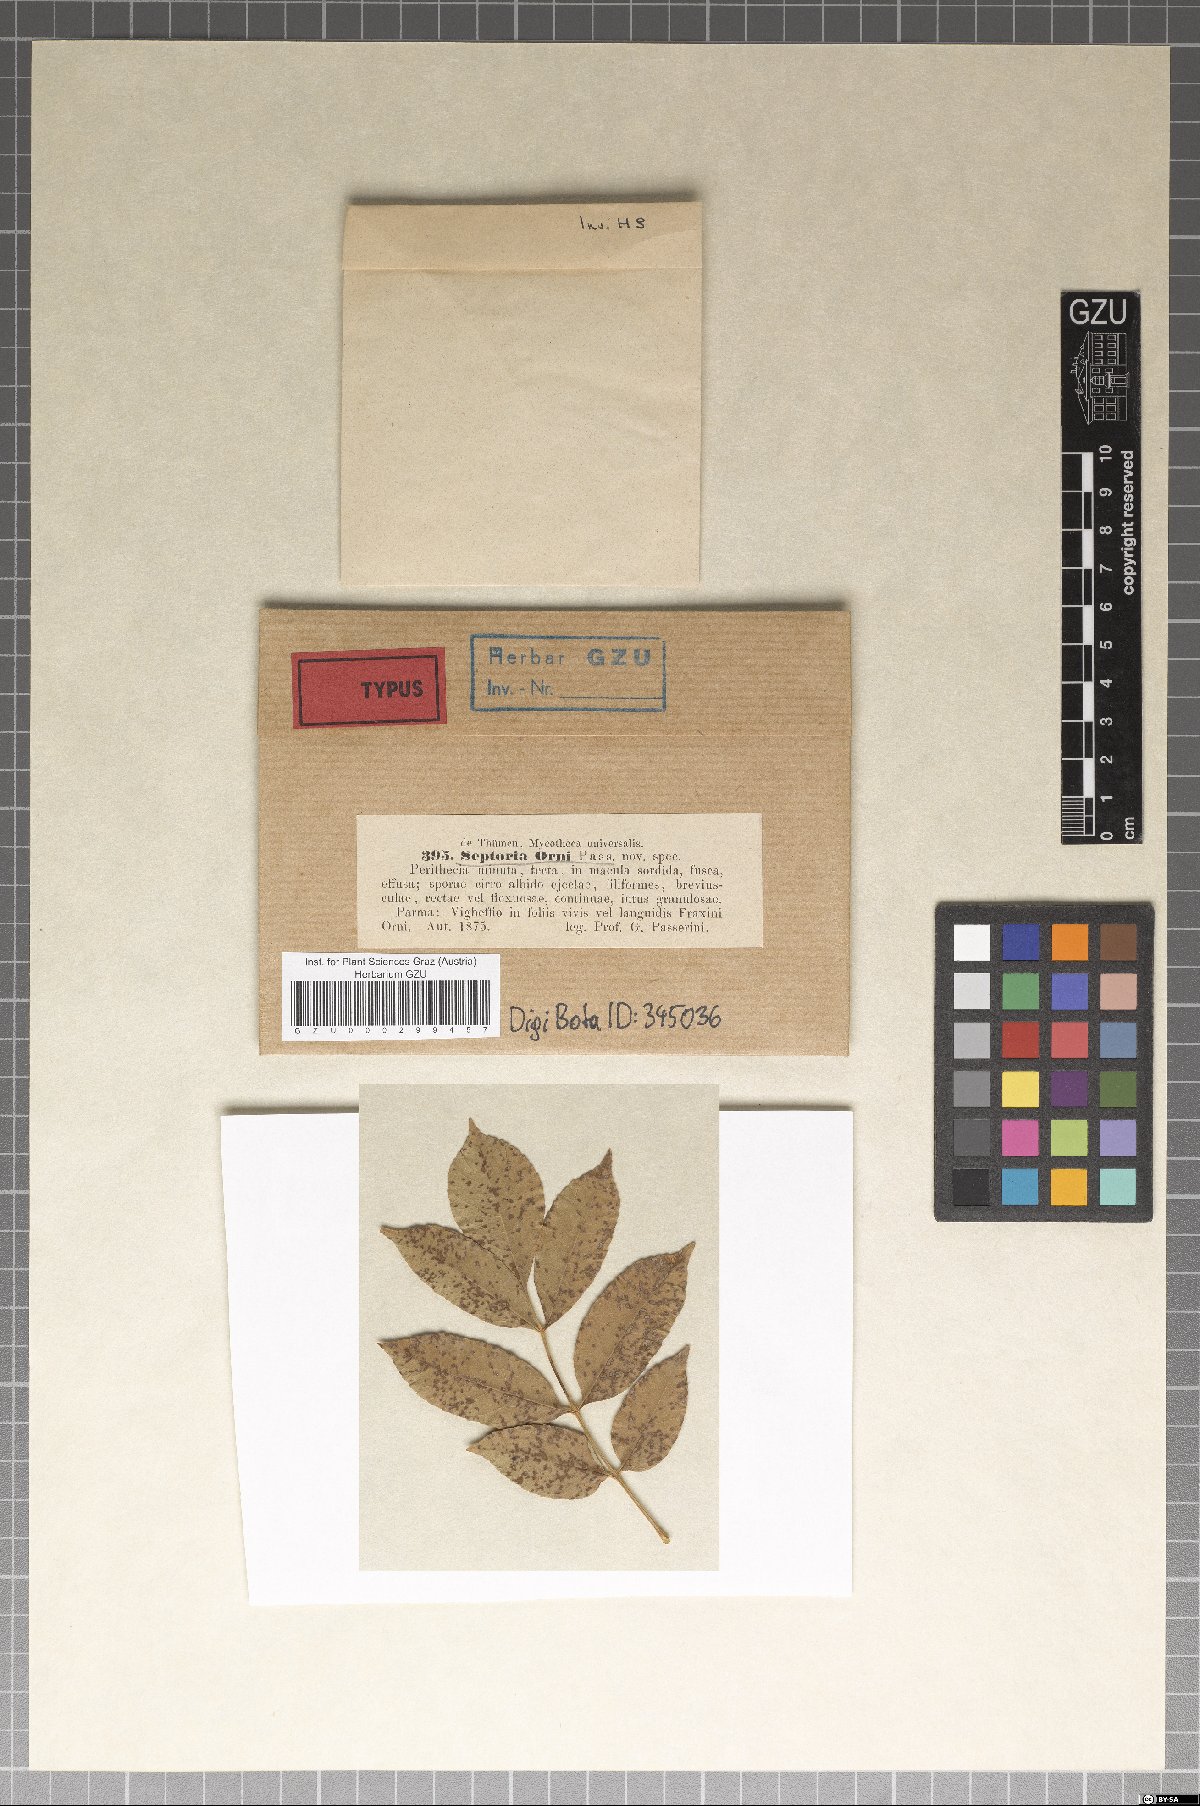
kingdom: Fungi
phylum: Ascomycota
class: Dothideomycetes
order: Mycosphaerellales
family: Mycosphaerellaceae
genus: Septoria
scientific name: Septoria
